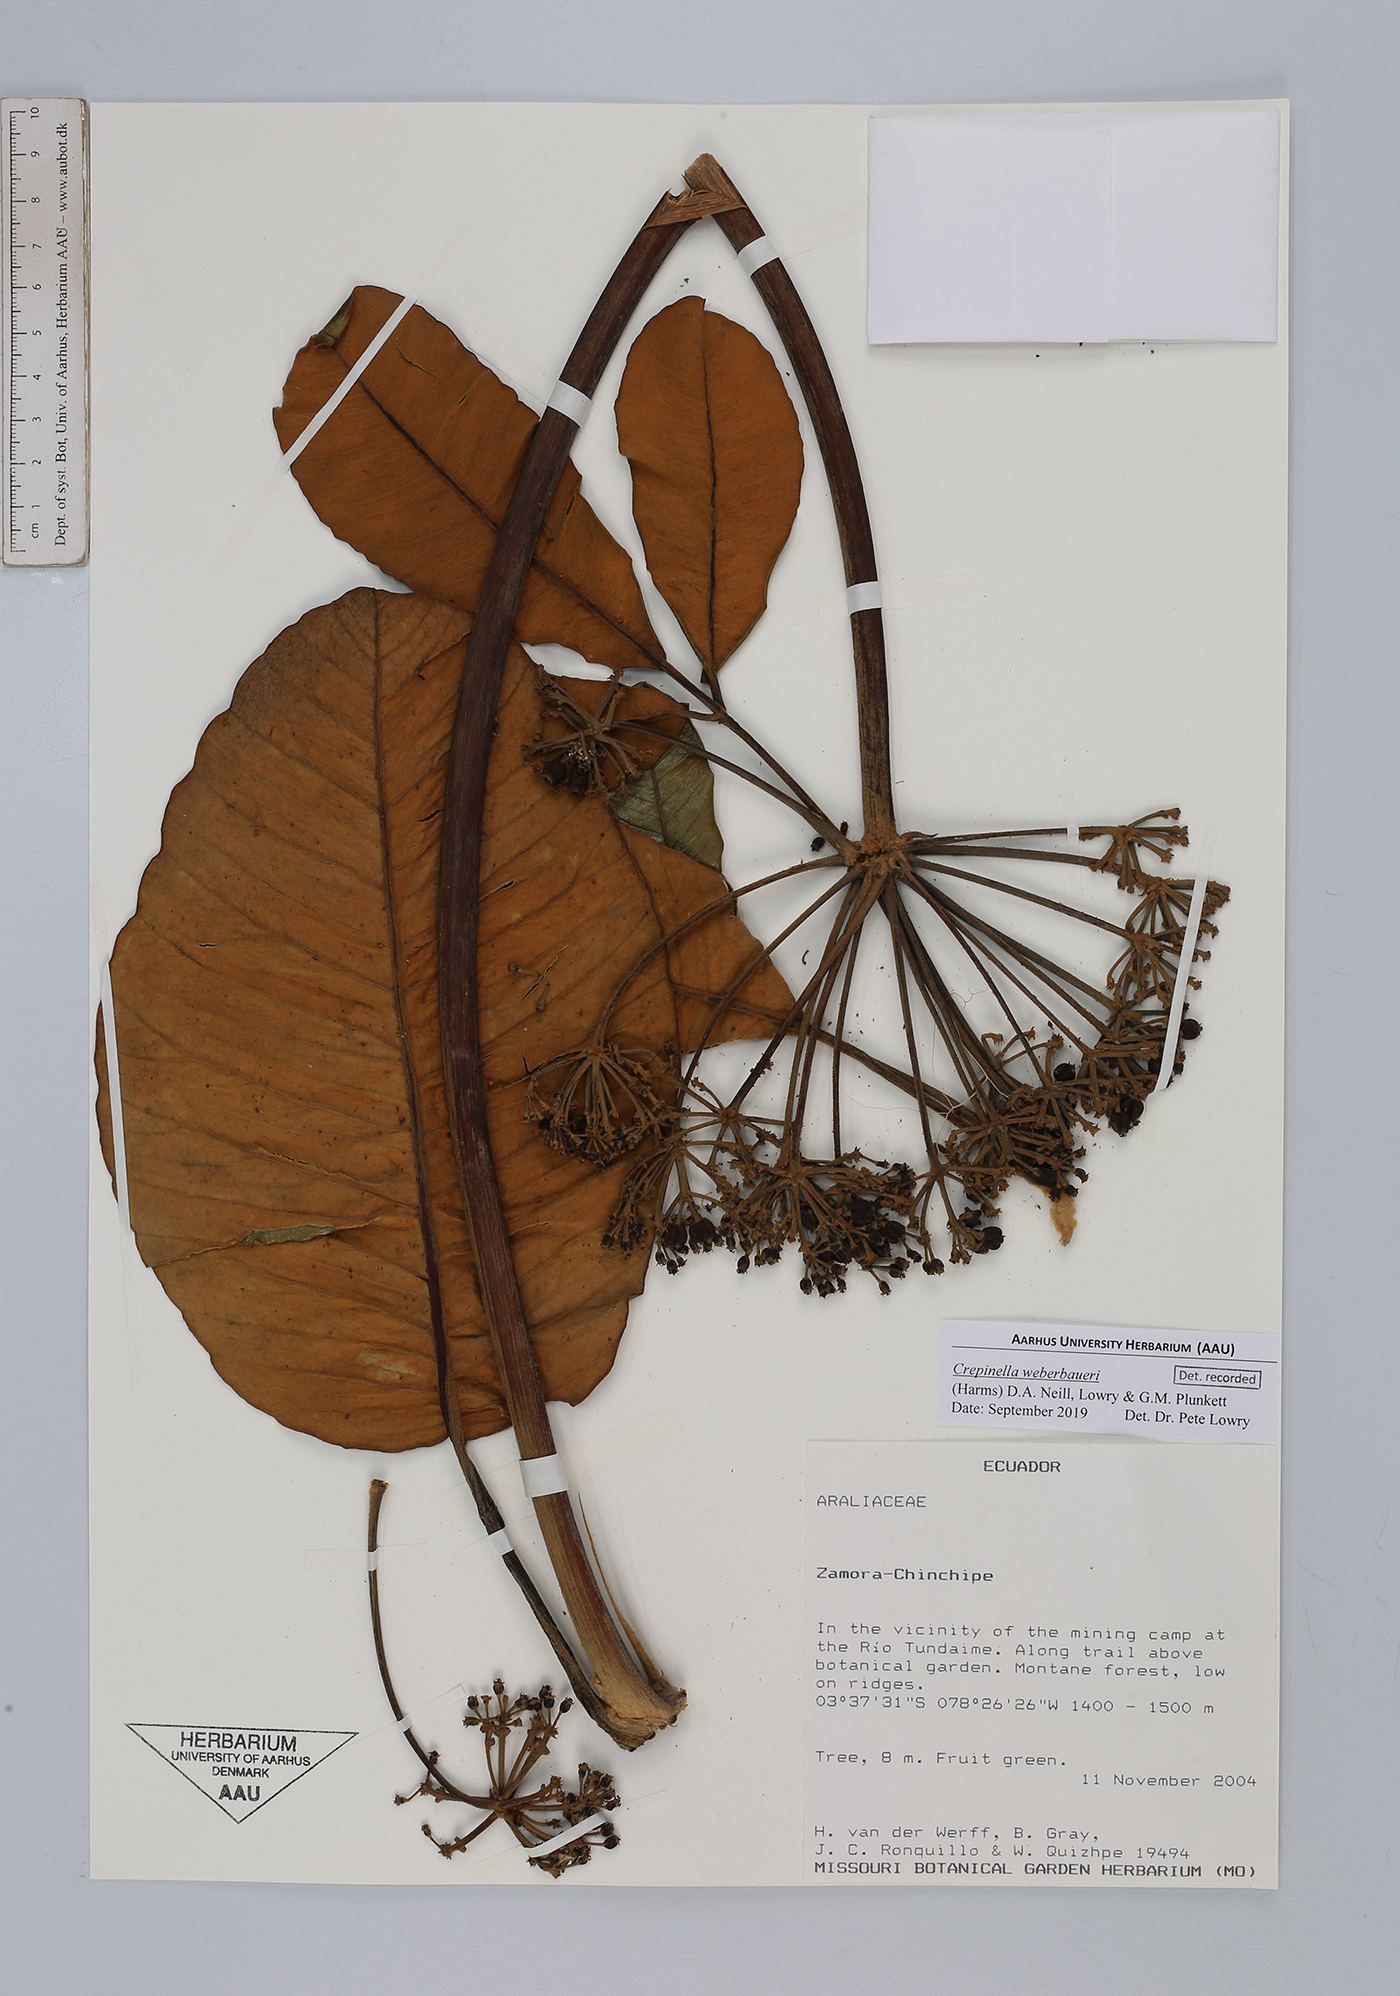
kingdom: Plantae
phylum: Tracheophyta
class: Magnoliopsida
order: Apiales
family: Araliaceae
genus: Crepinella
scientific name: Crepinella weberbaueri
